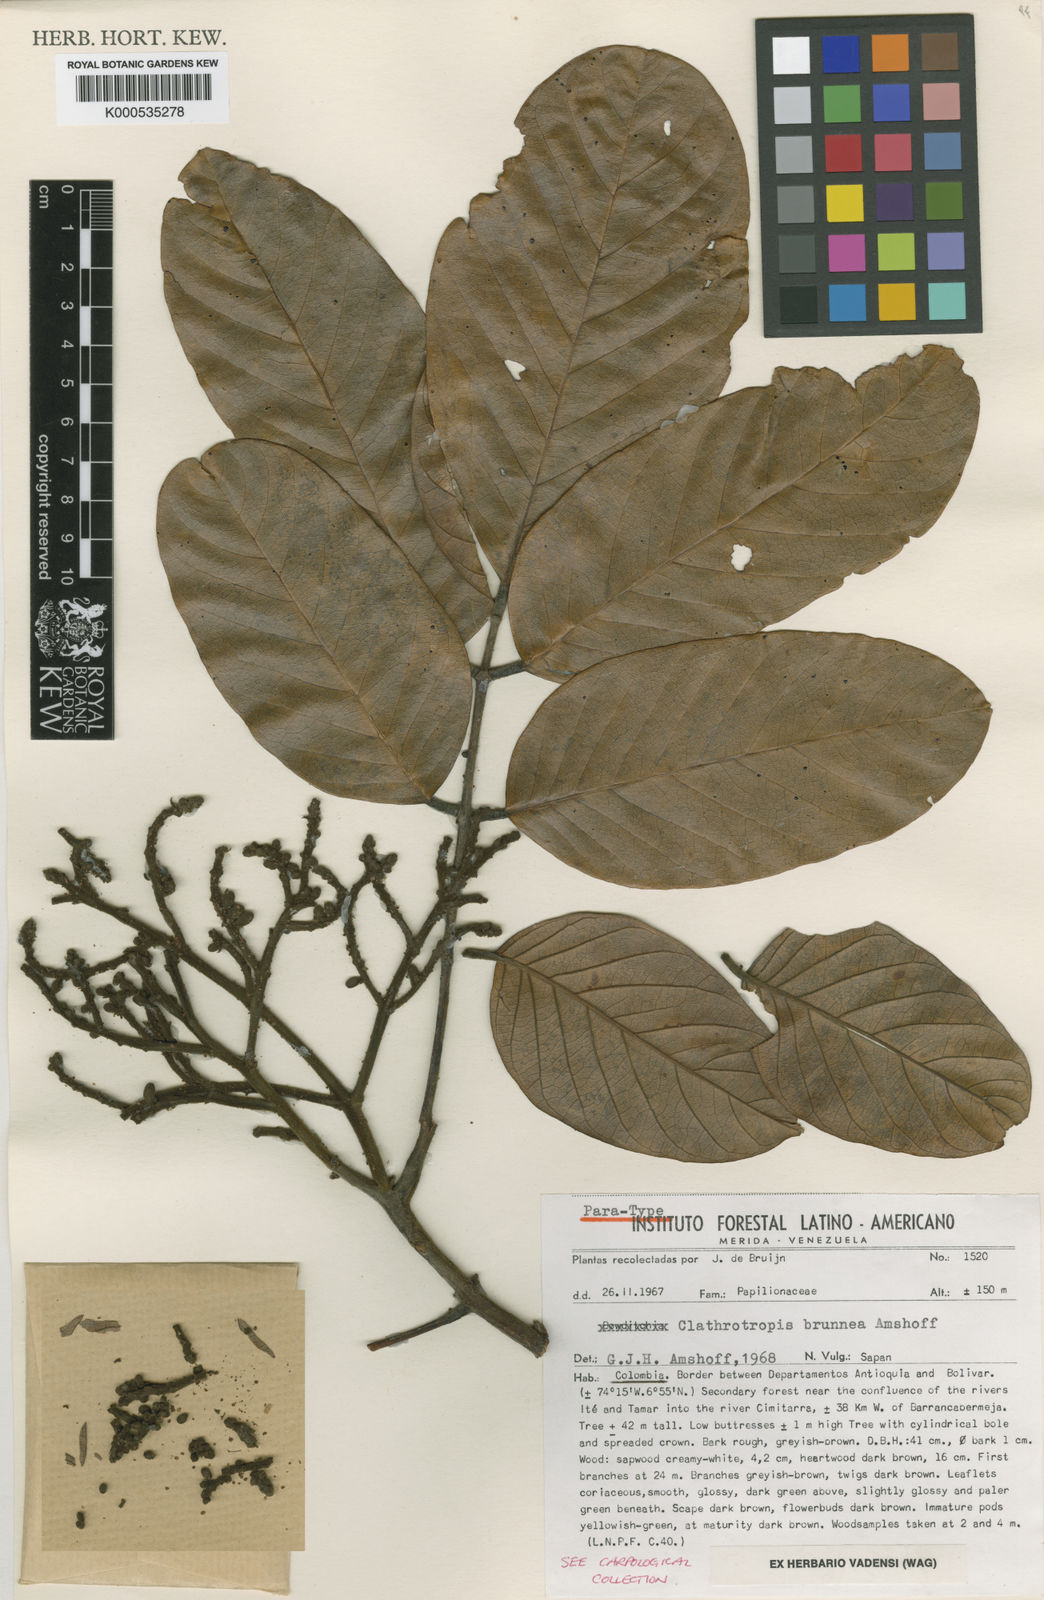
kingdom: Plantae
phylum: Tracheophyta
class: Magnoliopsida
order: Fabales
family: Fabaceae
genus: Clathrotropis
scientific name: Clathrotropis brunnea
